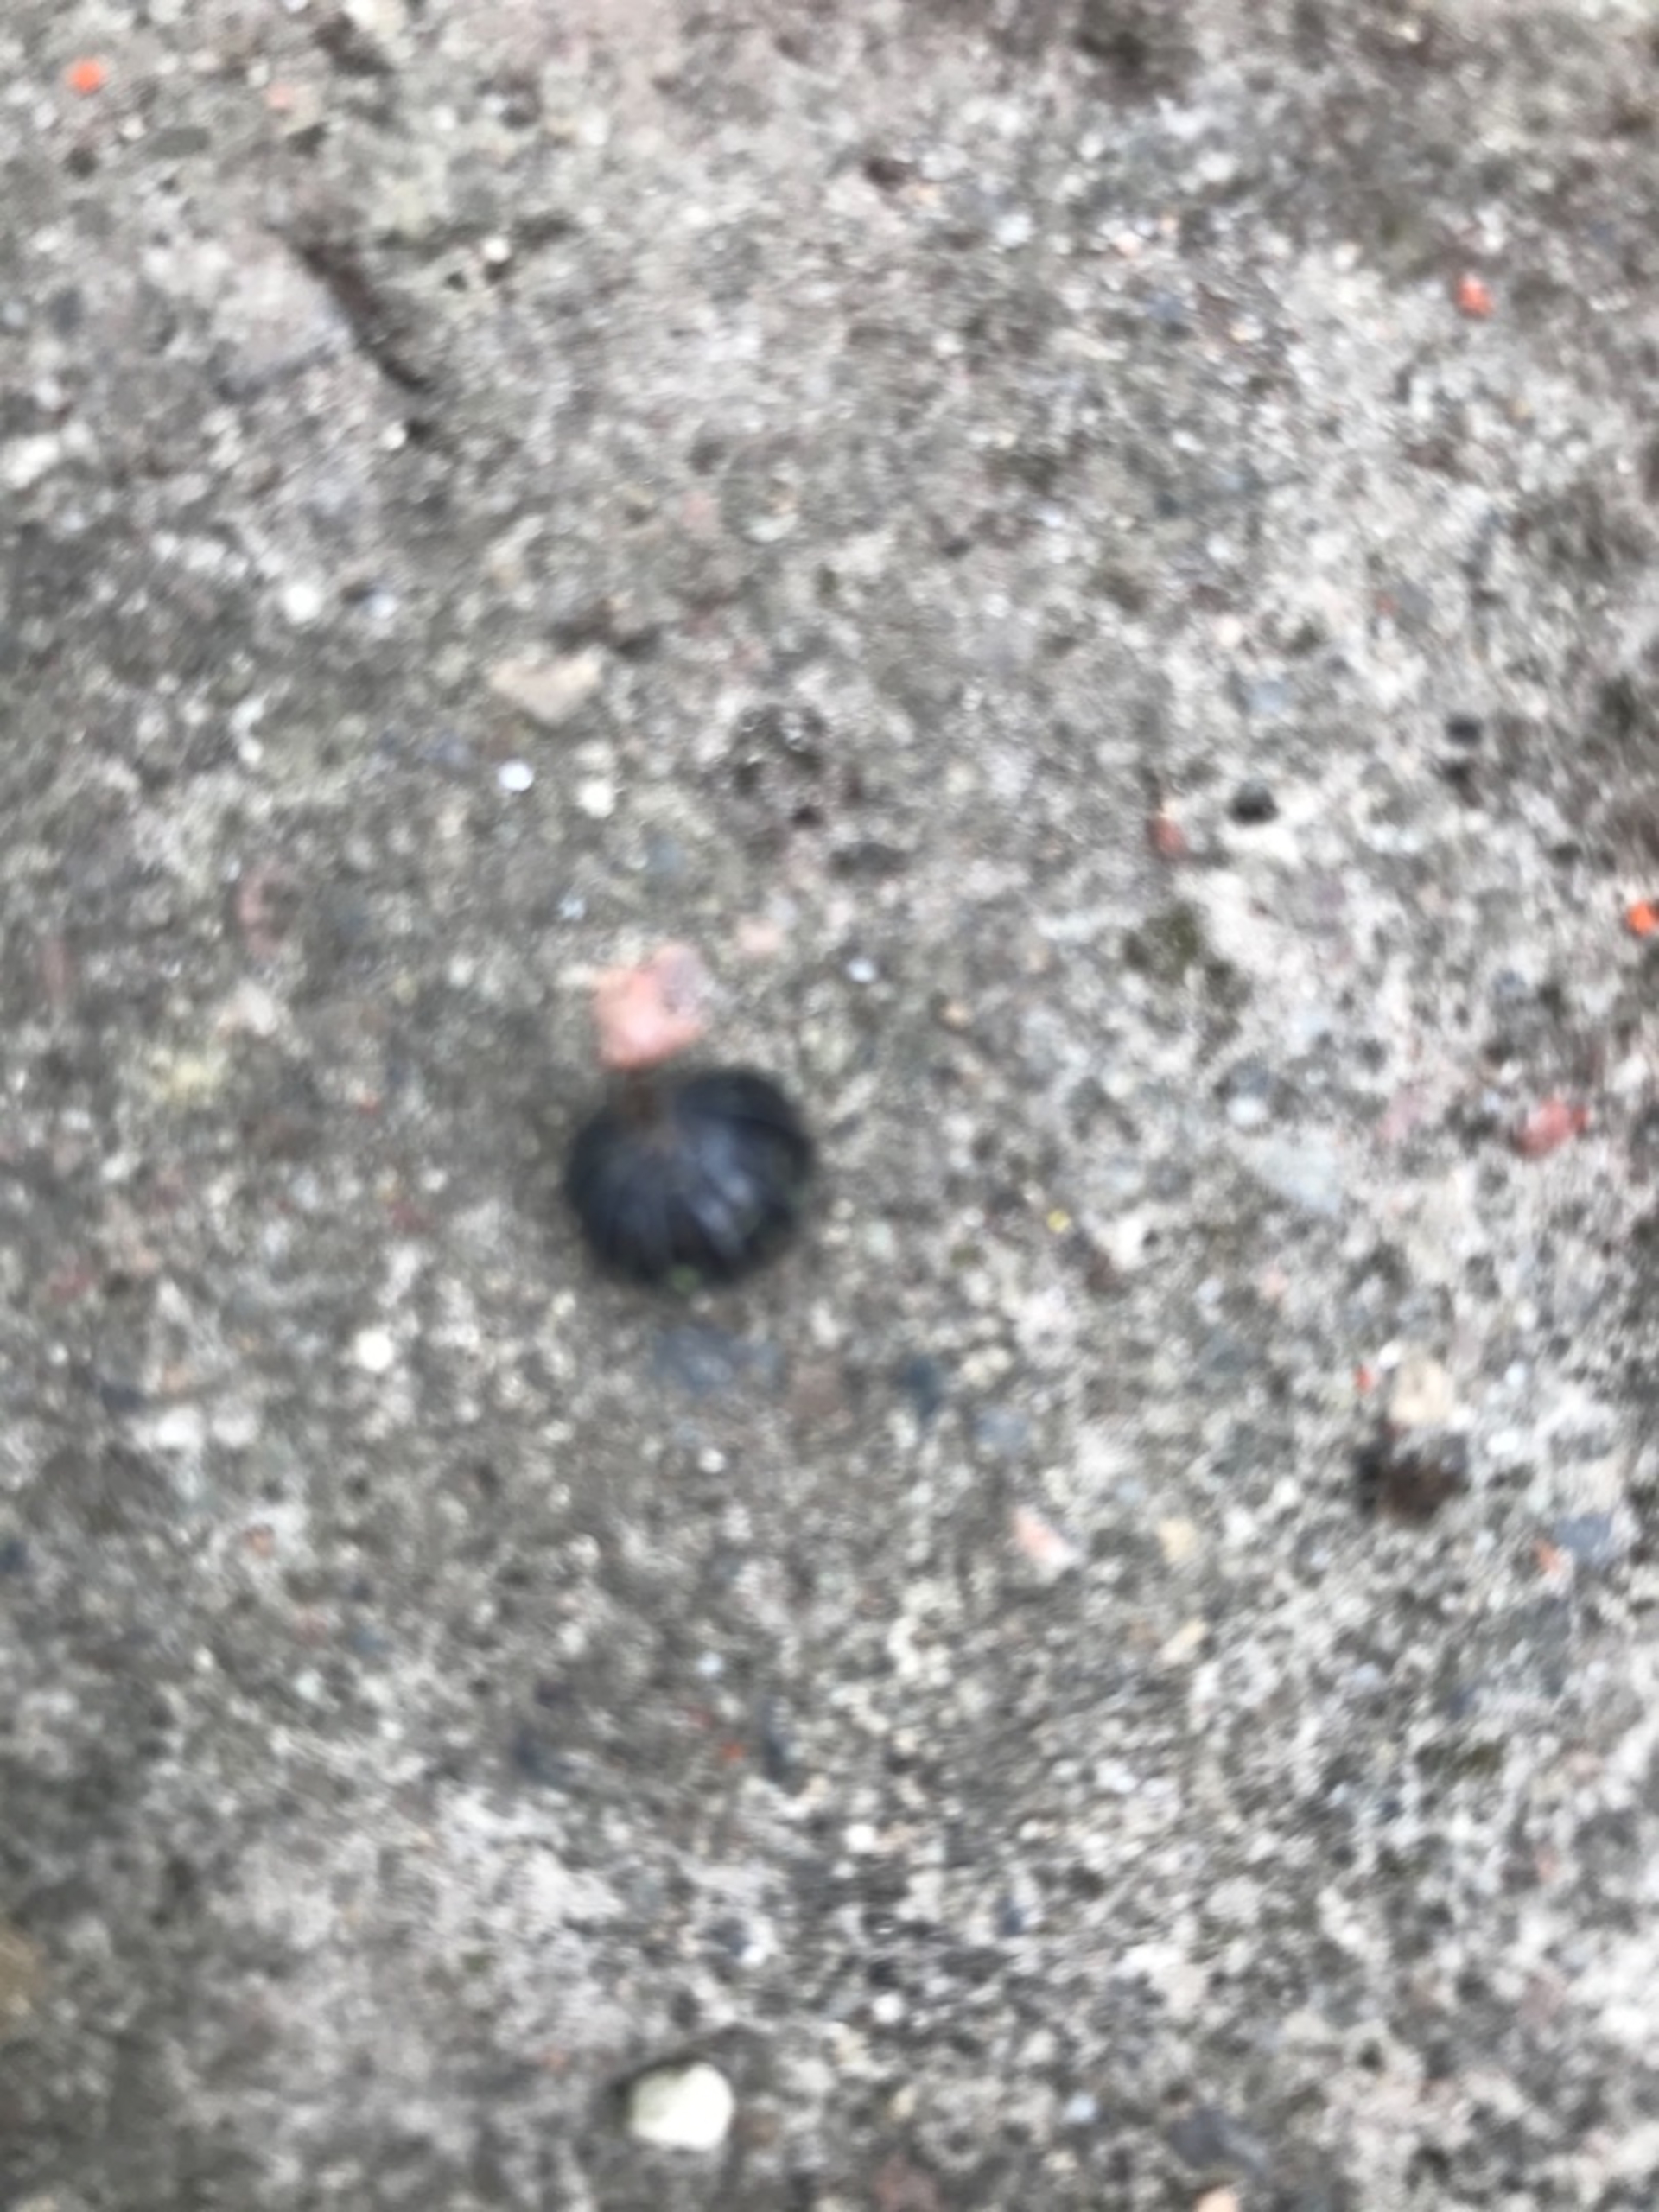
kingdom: Animalia
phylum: Arthropoda
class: Malacostraca
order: Isopoda
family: Armadillidiidae
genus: Armadillidium
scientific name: Armadillidium vulgare
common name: Almindelig kuglebænkebider
